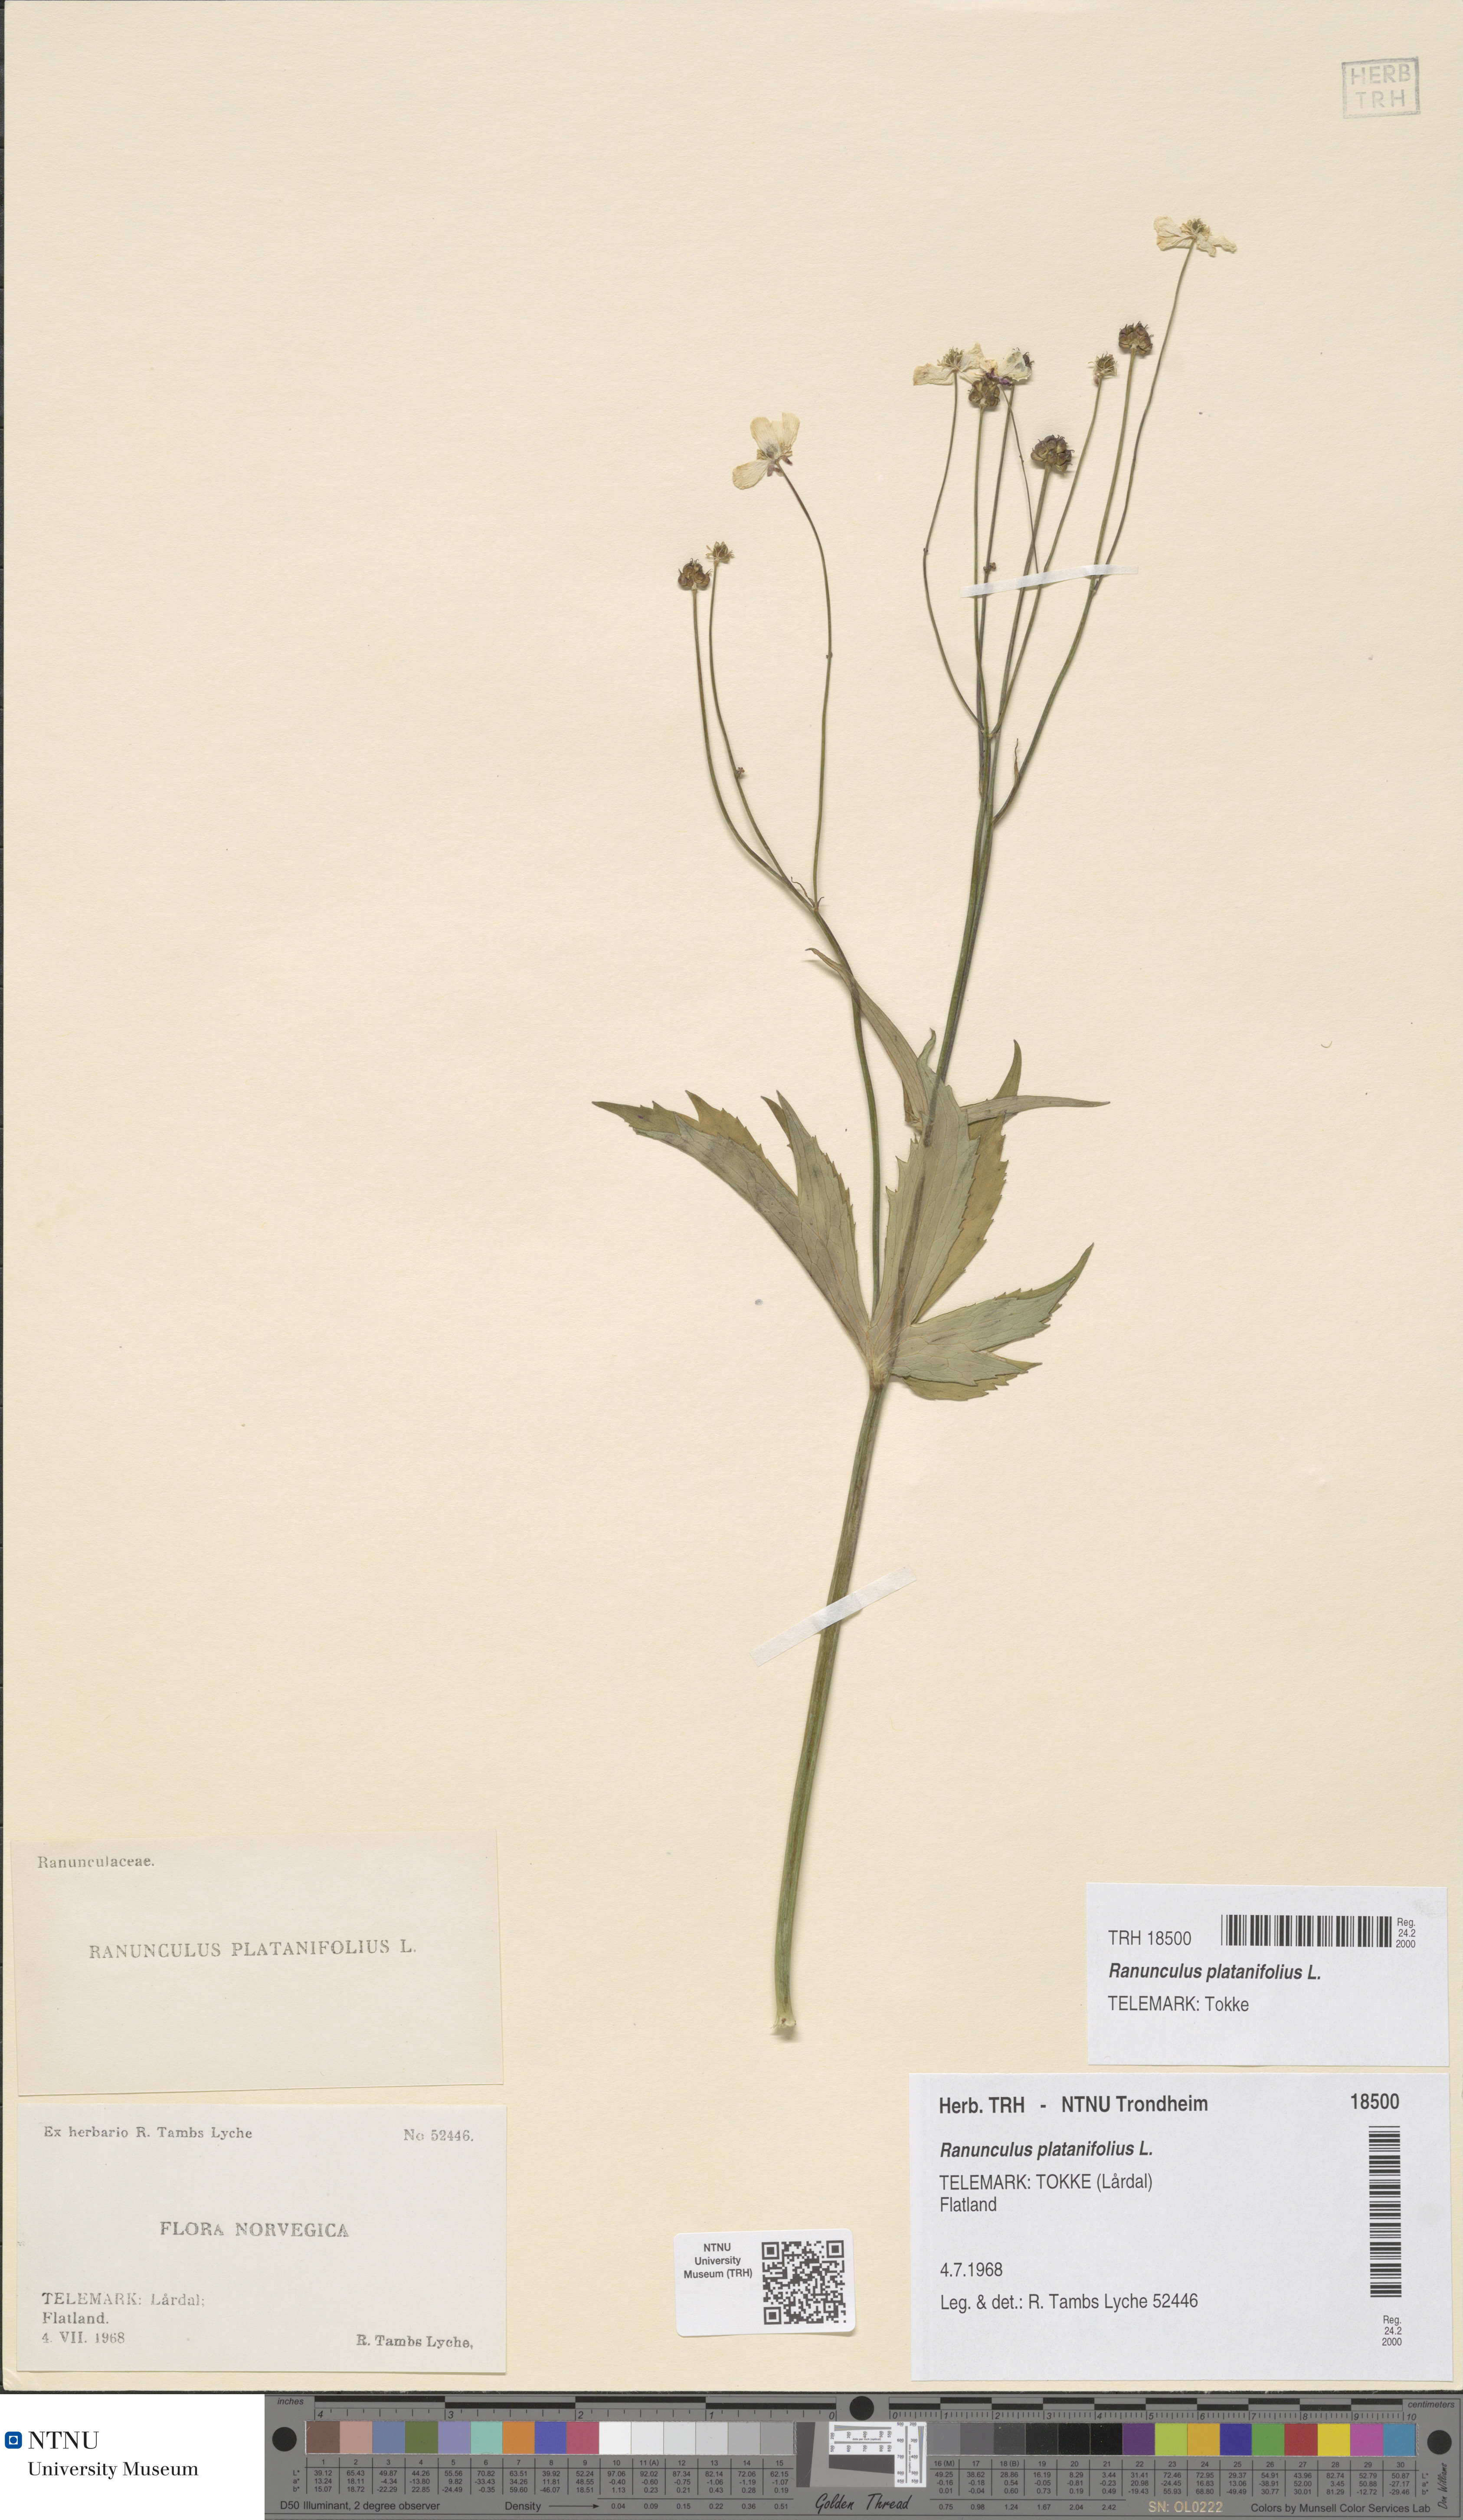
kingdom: Plantae
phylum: Tracheophyta
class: Magnoliopsida
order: Ranunculales
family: Ranunculaceae
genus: Ranunculus
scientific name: Ranunculus platanifolius
